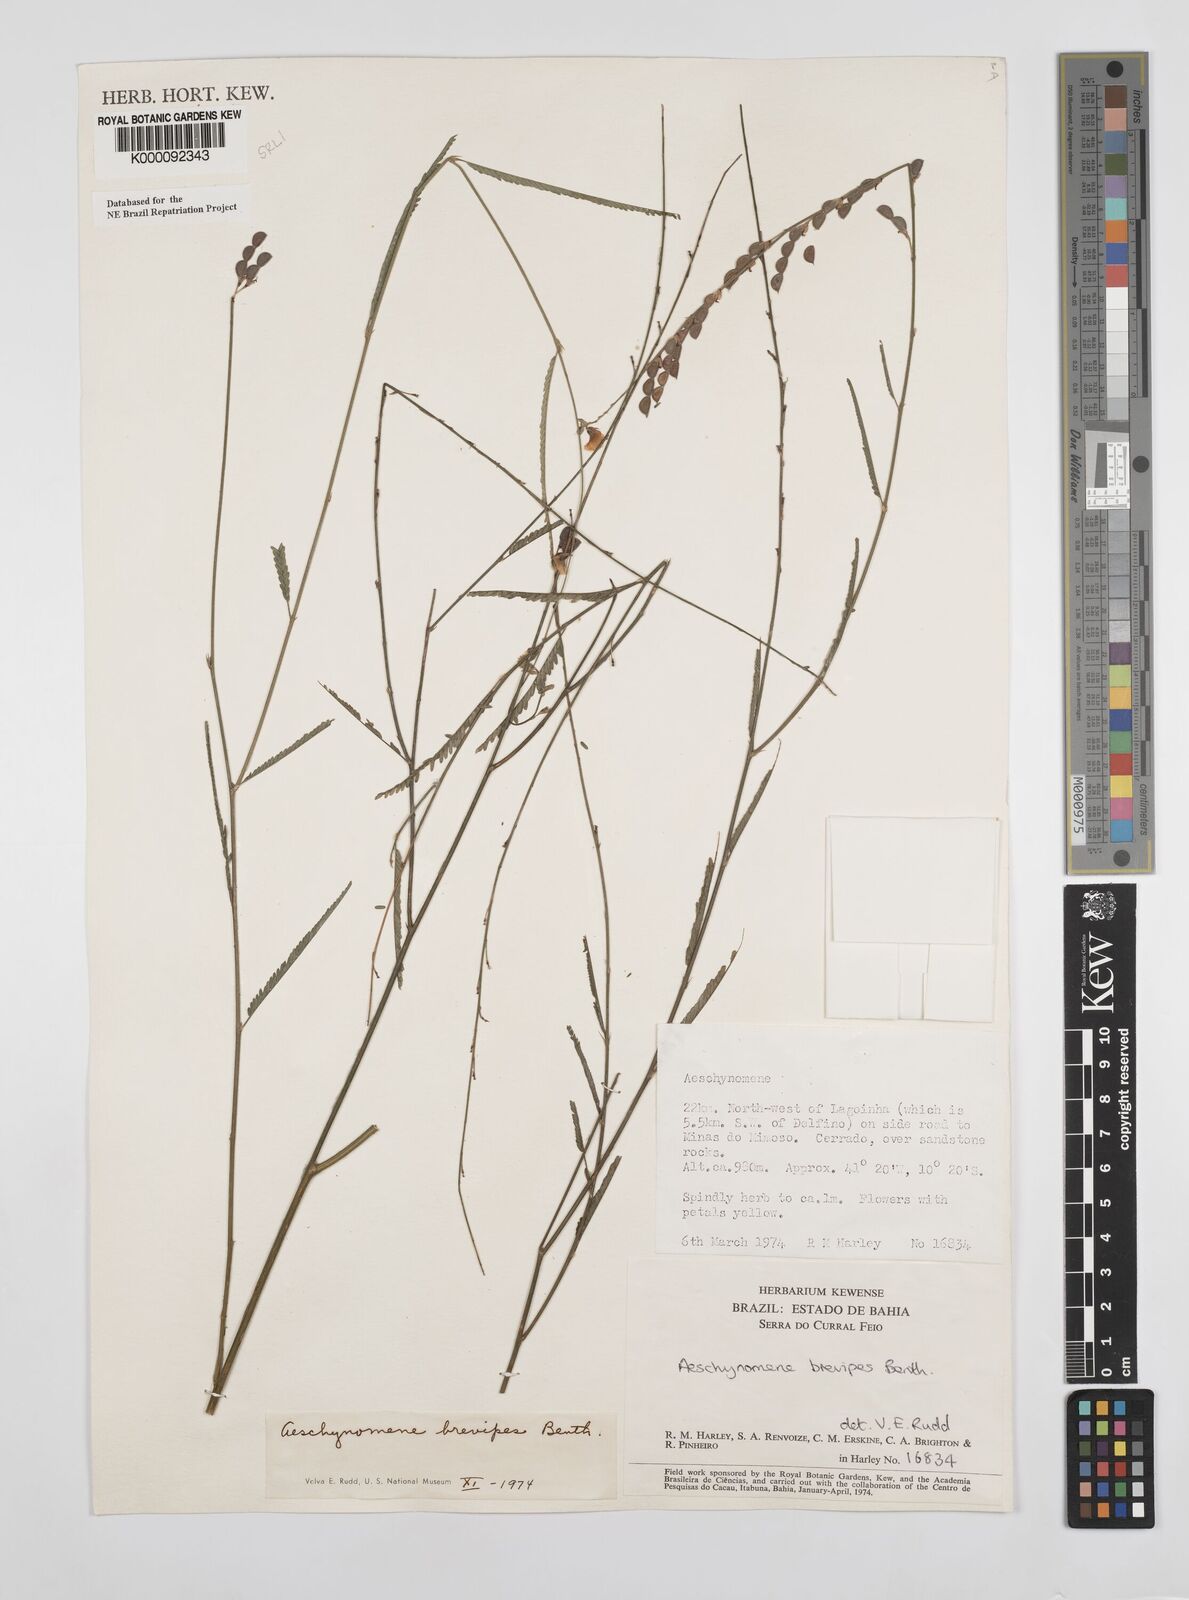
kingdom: Plantae
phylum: Tracheophyta
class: Magnoliopsida
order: Fabales
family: Fabaceae
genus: Ctenodon
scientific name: Ctenodon brevipes
